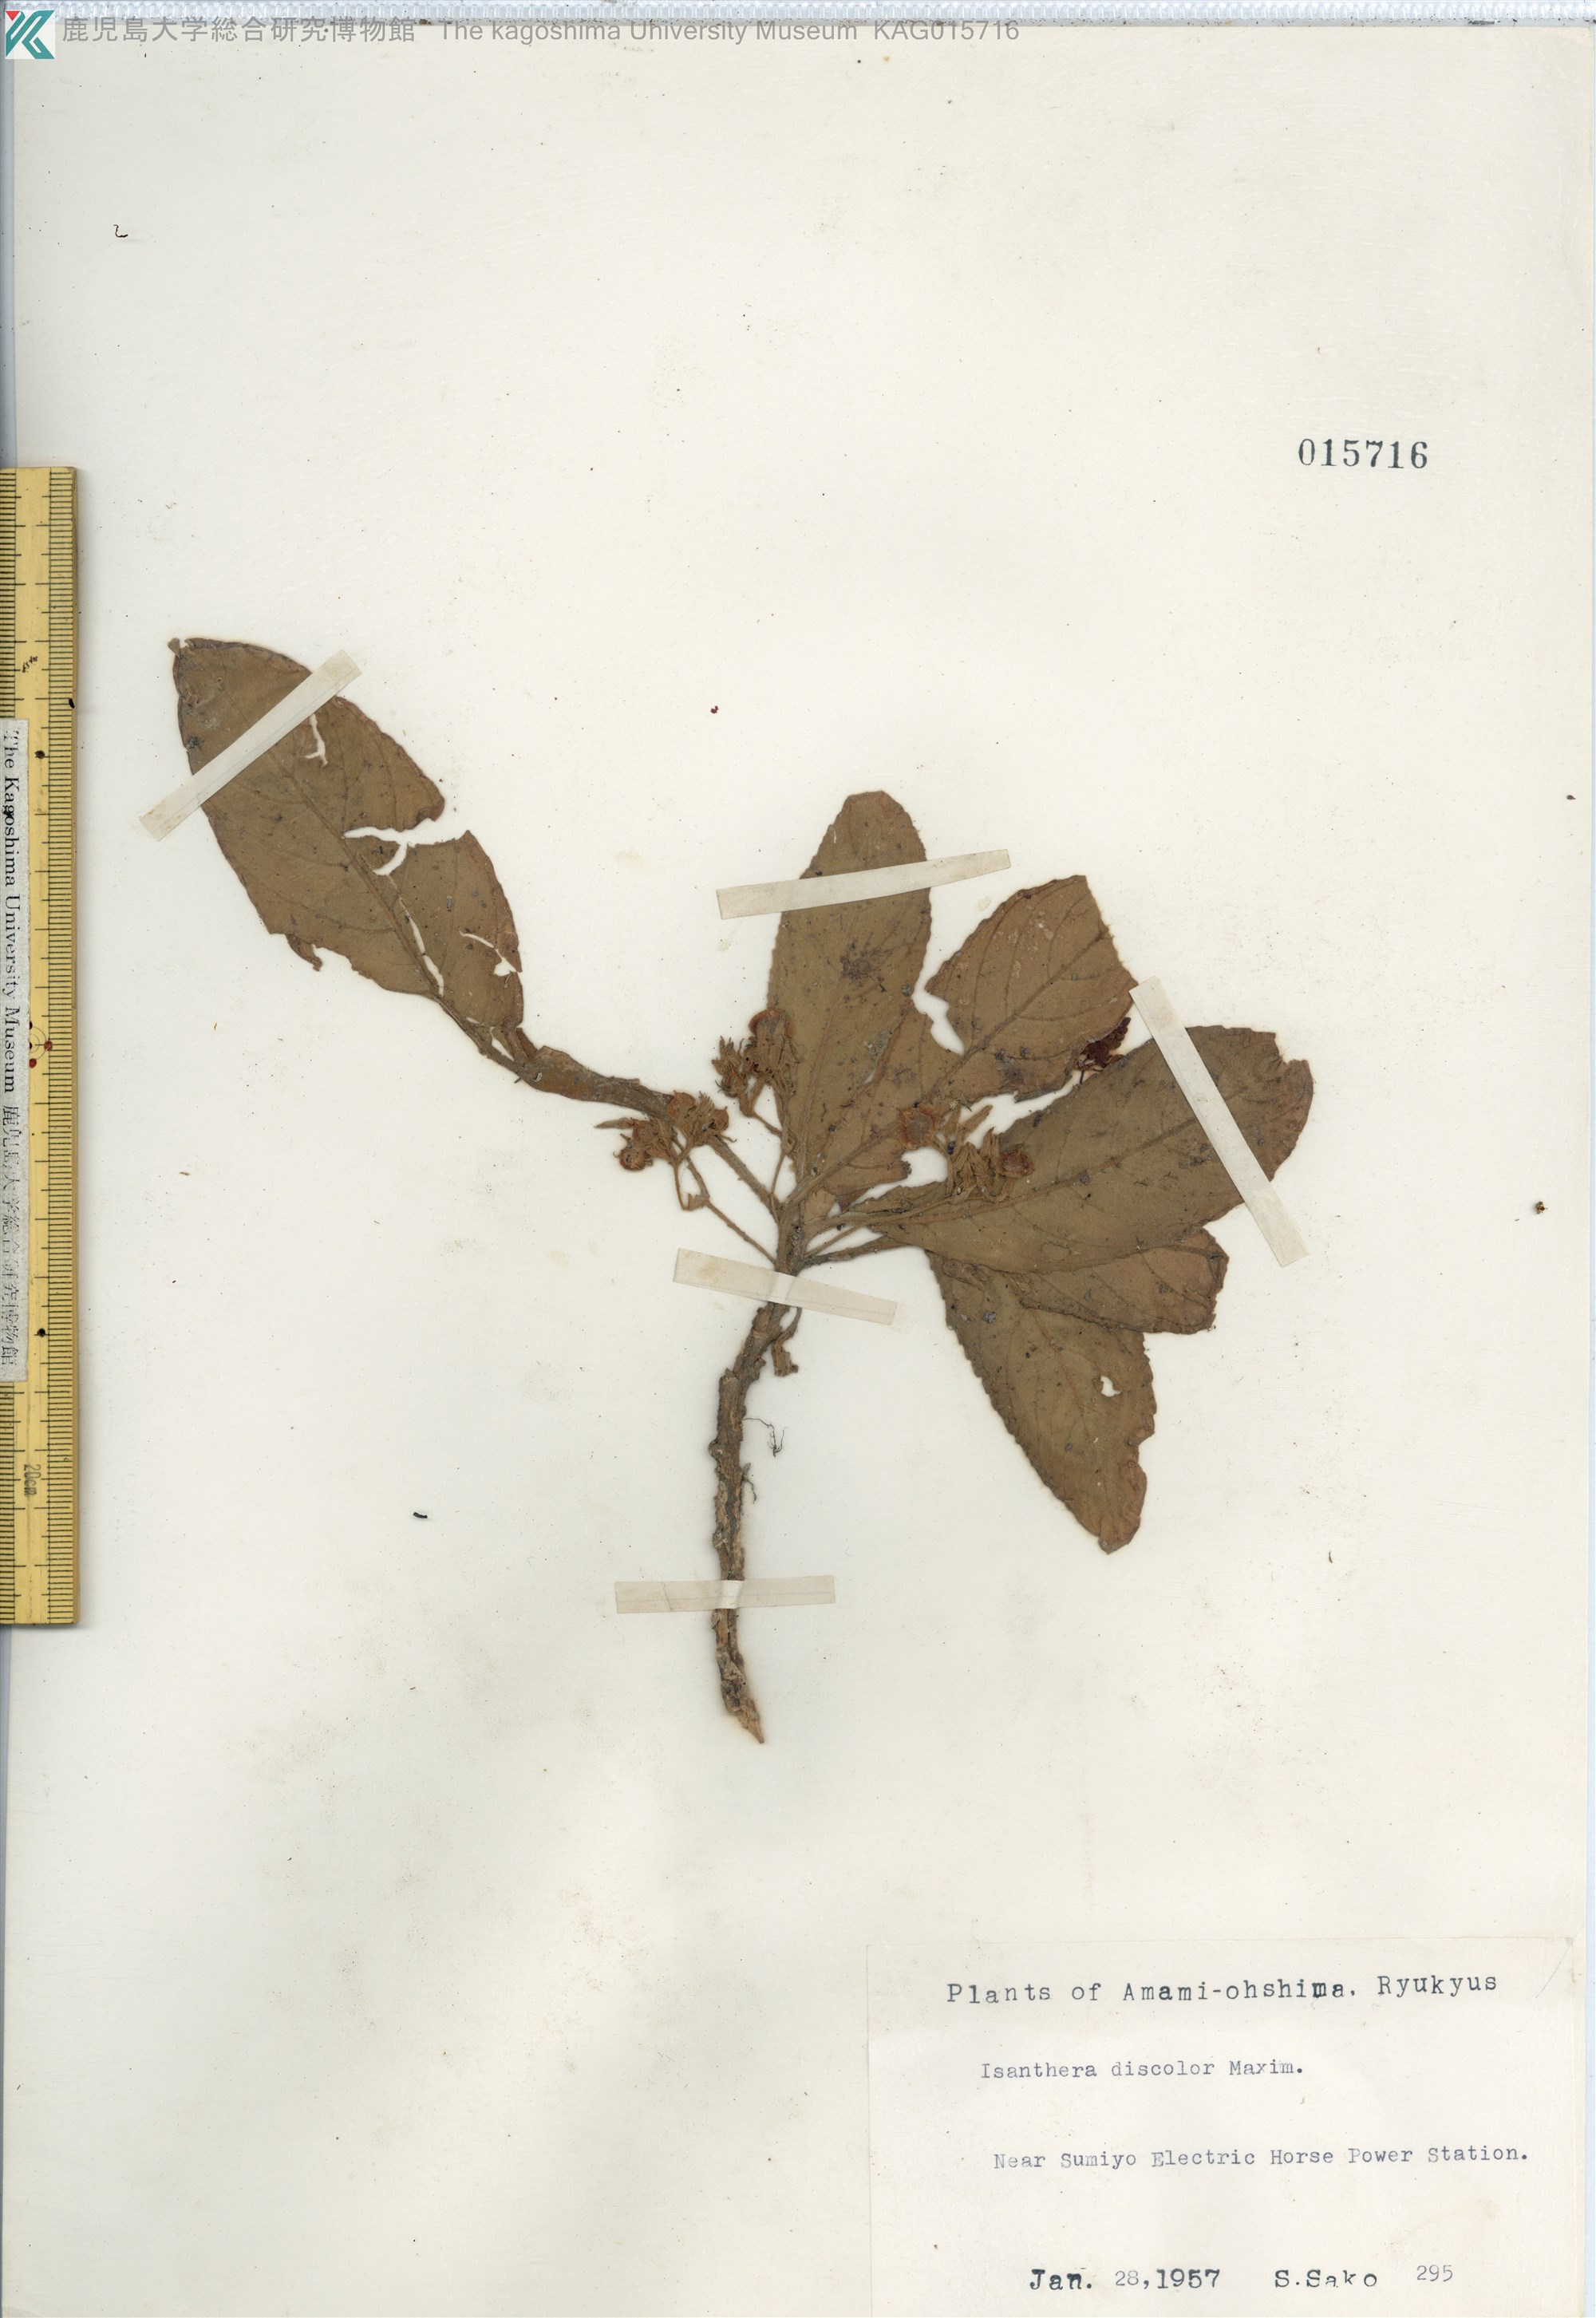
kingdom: Plantae
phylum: Tracheophyta
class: Magnoliopsida
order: Lamiales
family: Gesneriaceae
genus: Rhynchotechum
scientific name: Rhynchotechum discolor
